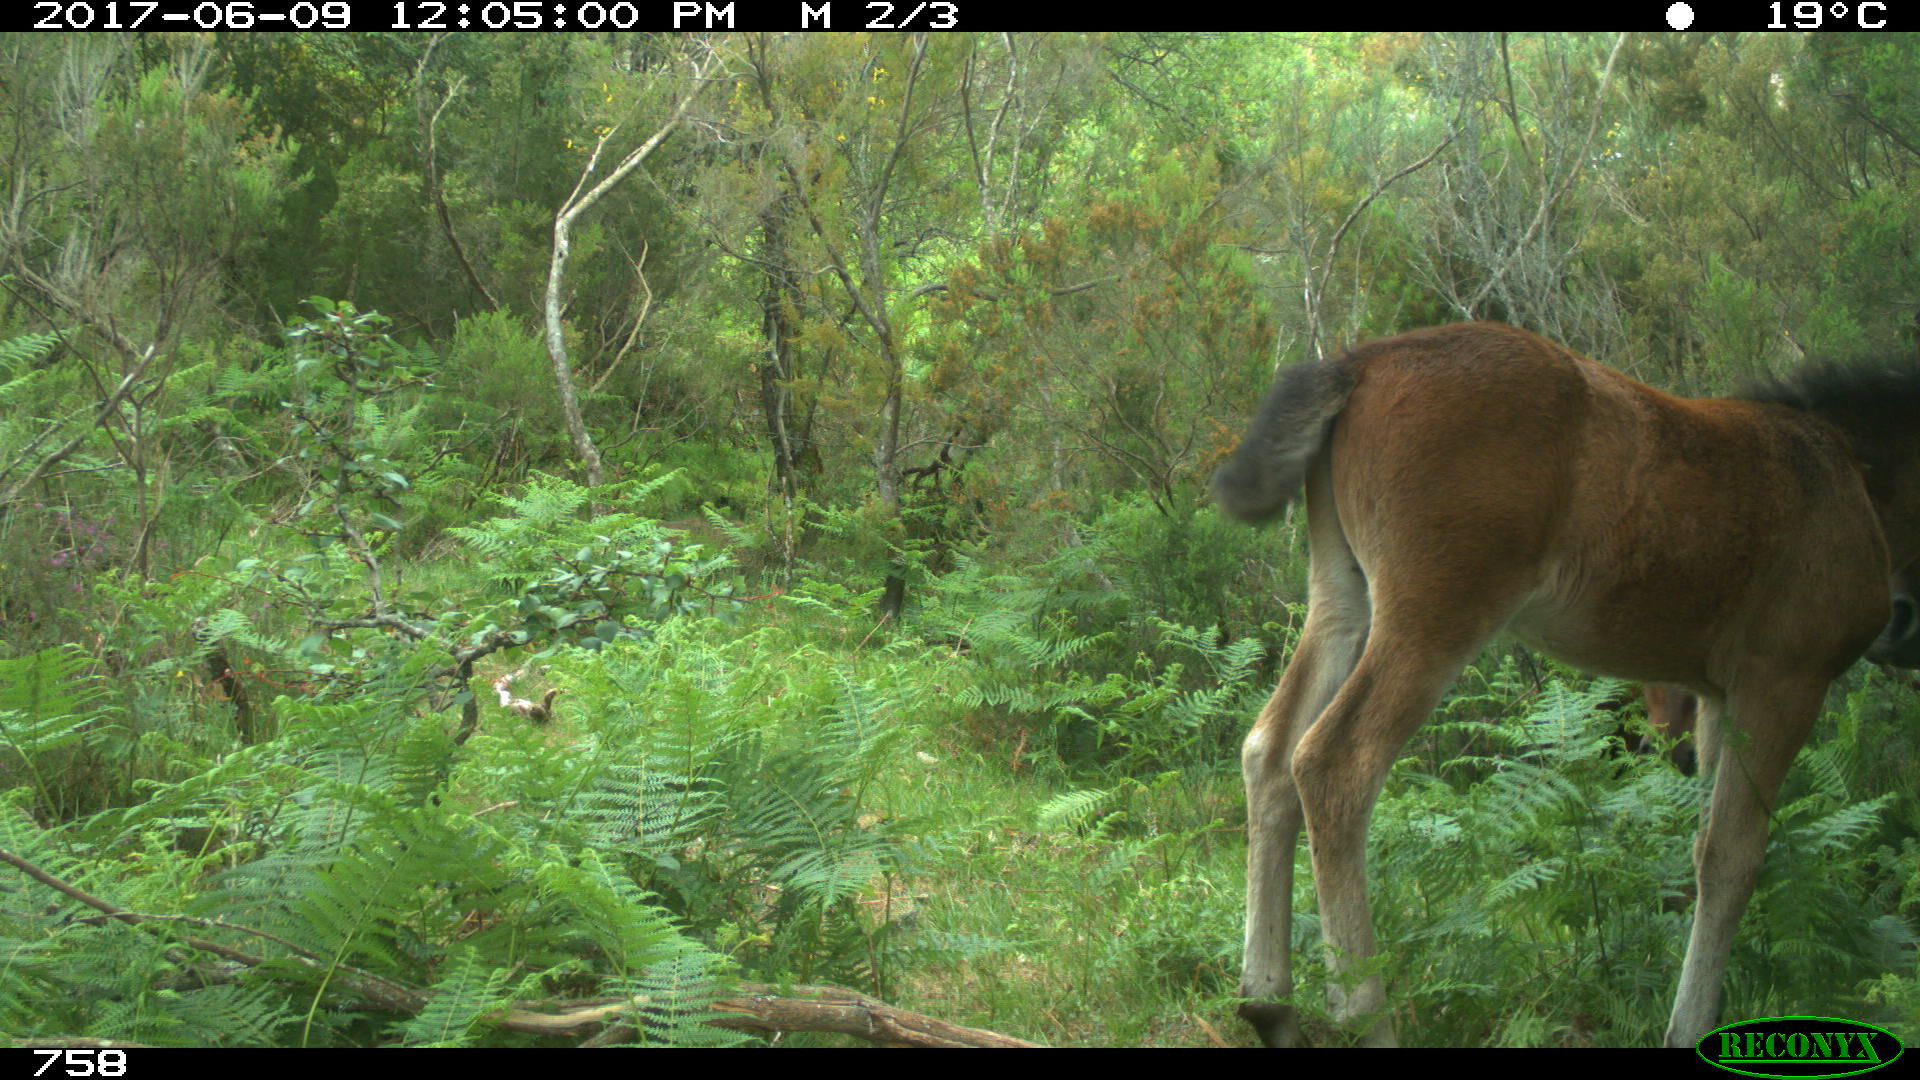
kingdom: Animalia
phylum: Chordata
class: Mammalia
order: Perissodactyla
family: Equidae
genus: Equus
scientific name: Equus caballus
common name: Horse
